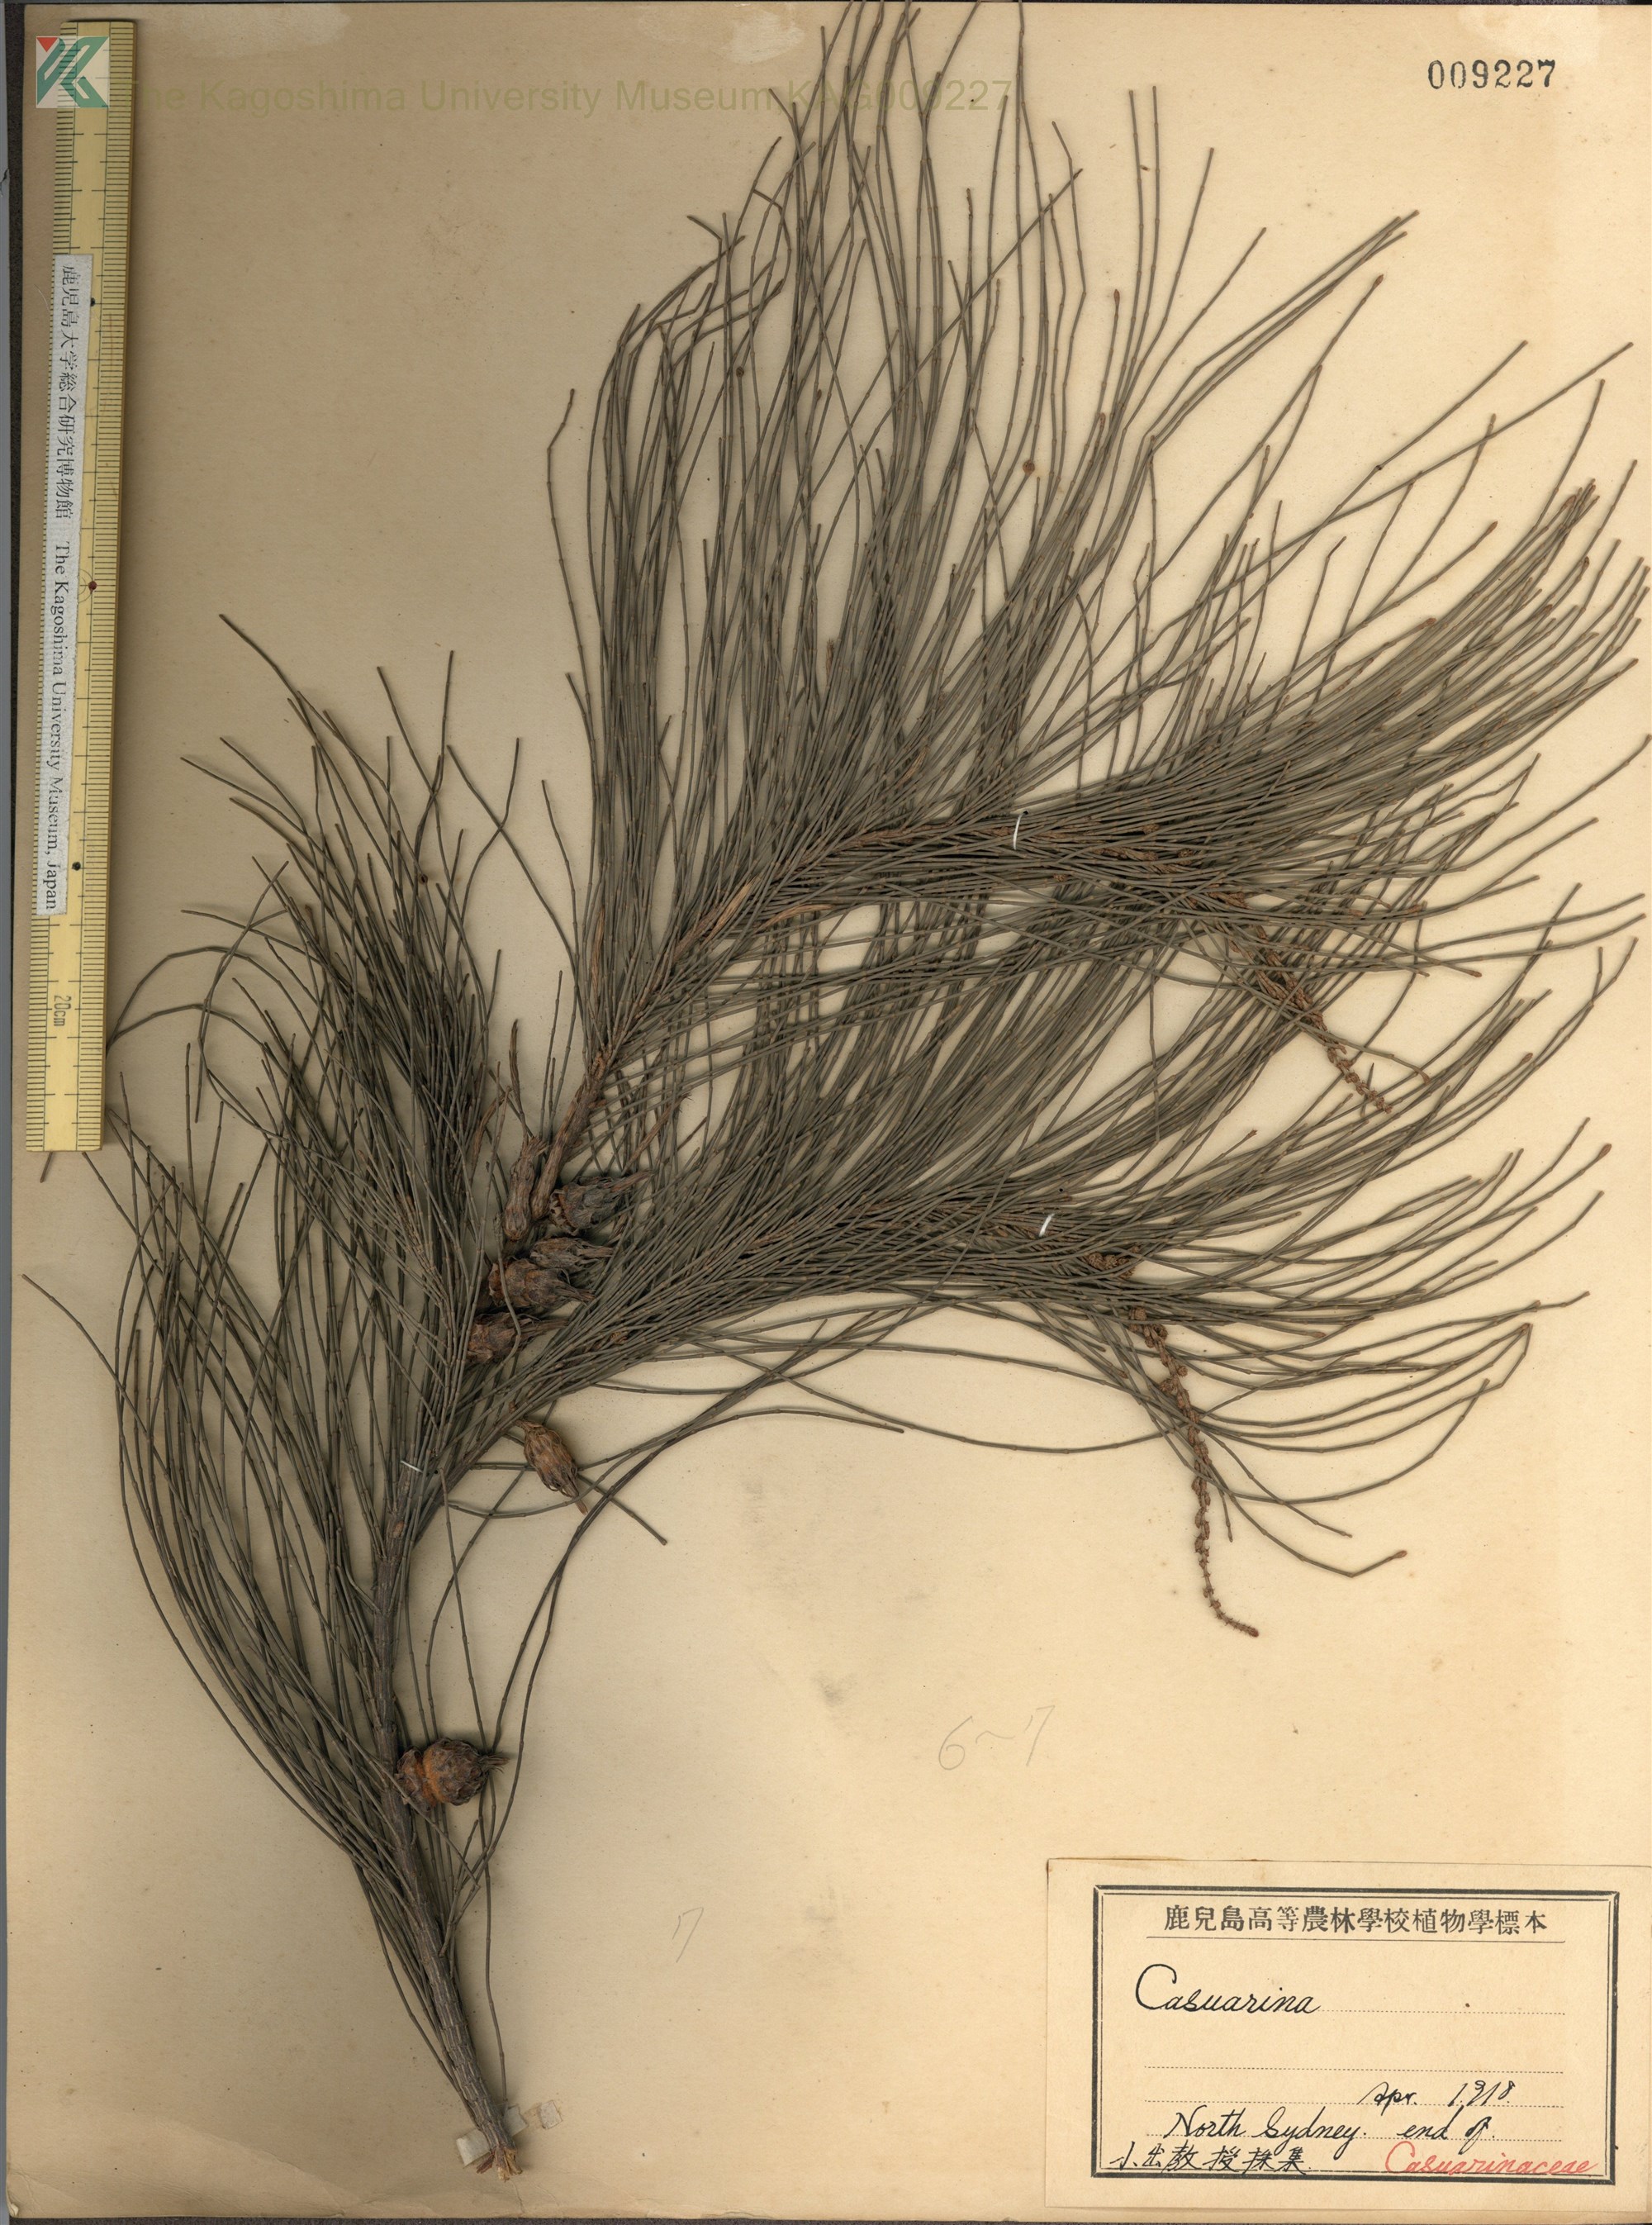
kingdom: Plantae
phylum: Tracheophyta
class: Magnoliopsida
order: Fagales
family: Casuarinaceae
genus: Casuarina
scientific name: Casuarina
